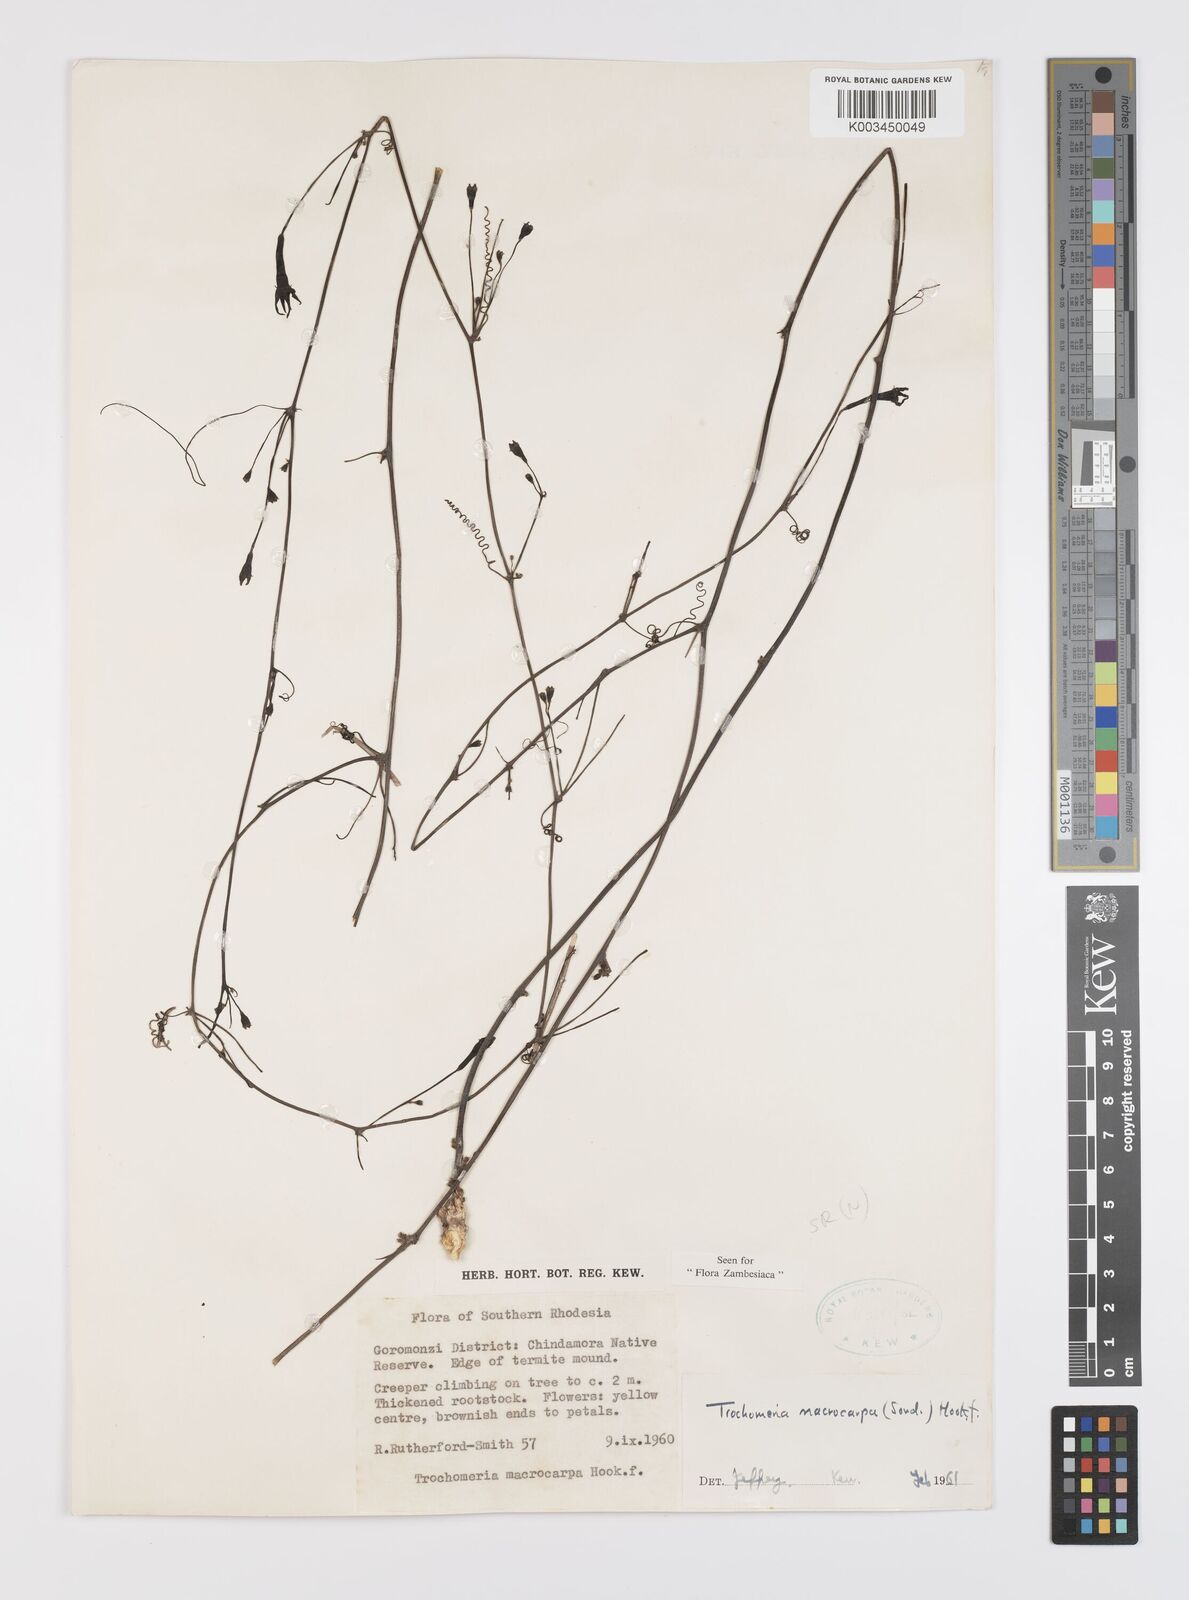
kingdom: Plantae
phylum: Tracheophyta
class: Magnoliopsida
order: Cucurbitales
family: Cucurbitaceae
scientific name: Cucurbitaceae
